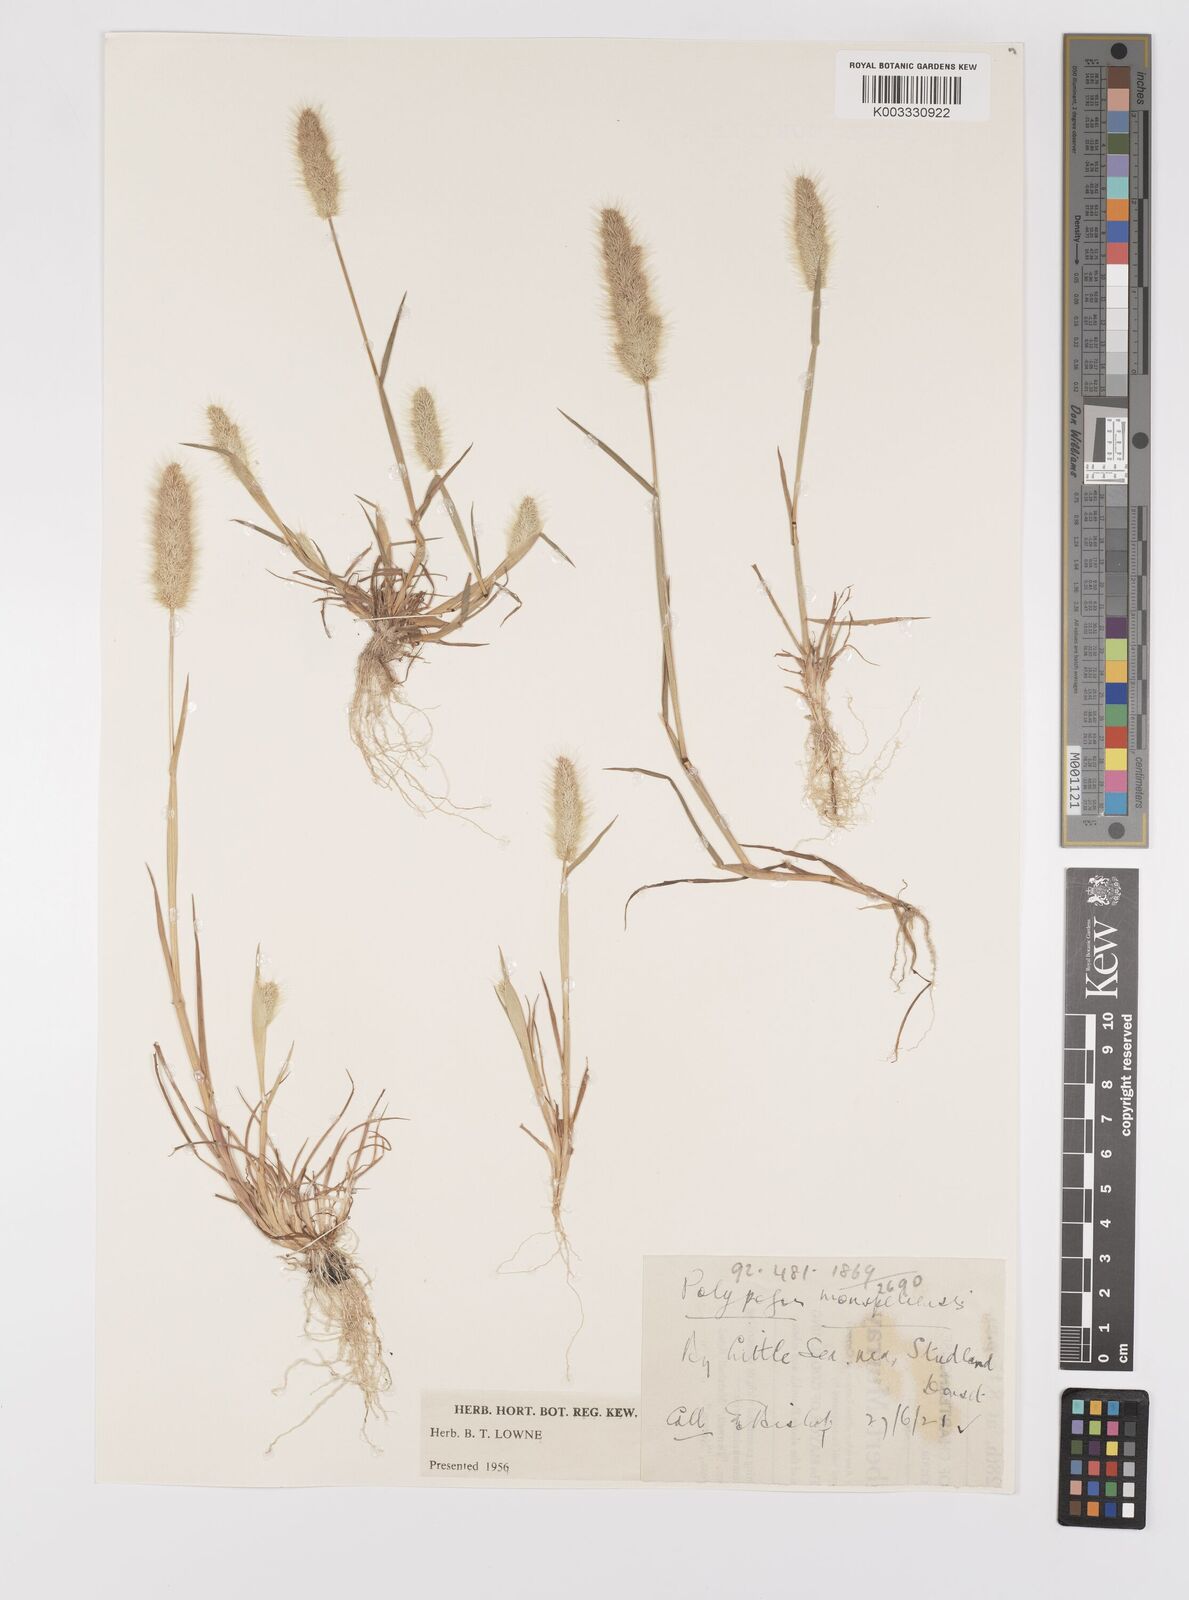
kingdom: Plantae
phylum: Tracheophyta
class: Liliopsida
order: Poales
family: Poaceae
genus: Polypogon
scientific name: Polypogon monspeliensis
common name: Annual rabbitsfoot grass
